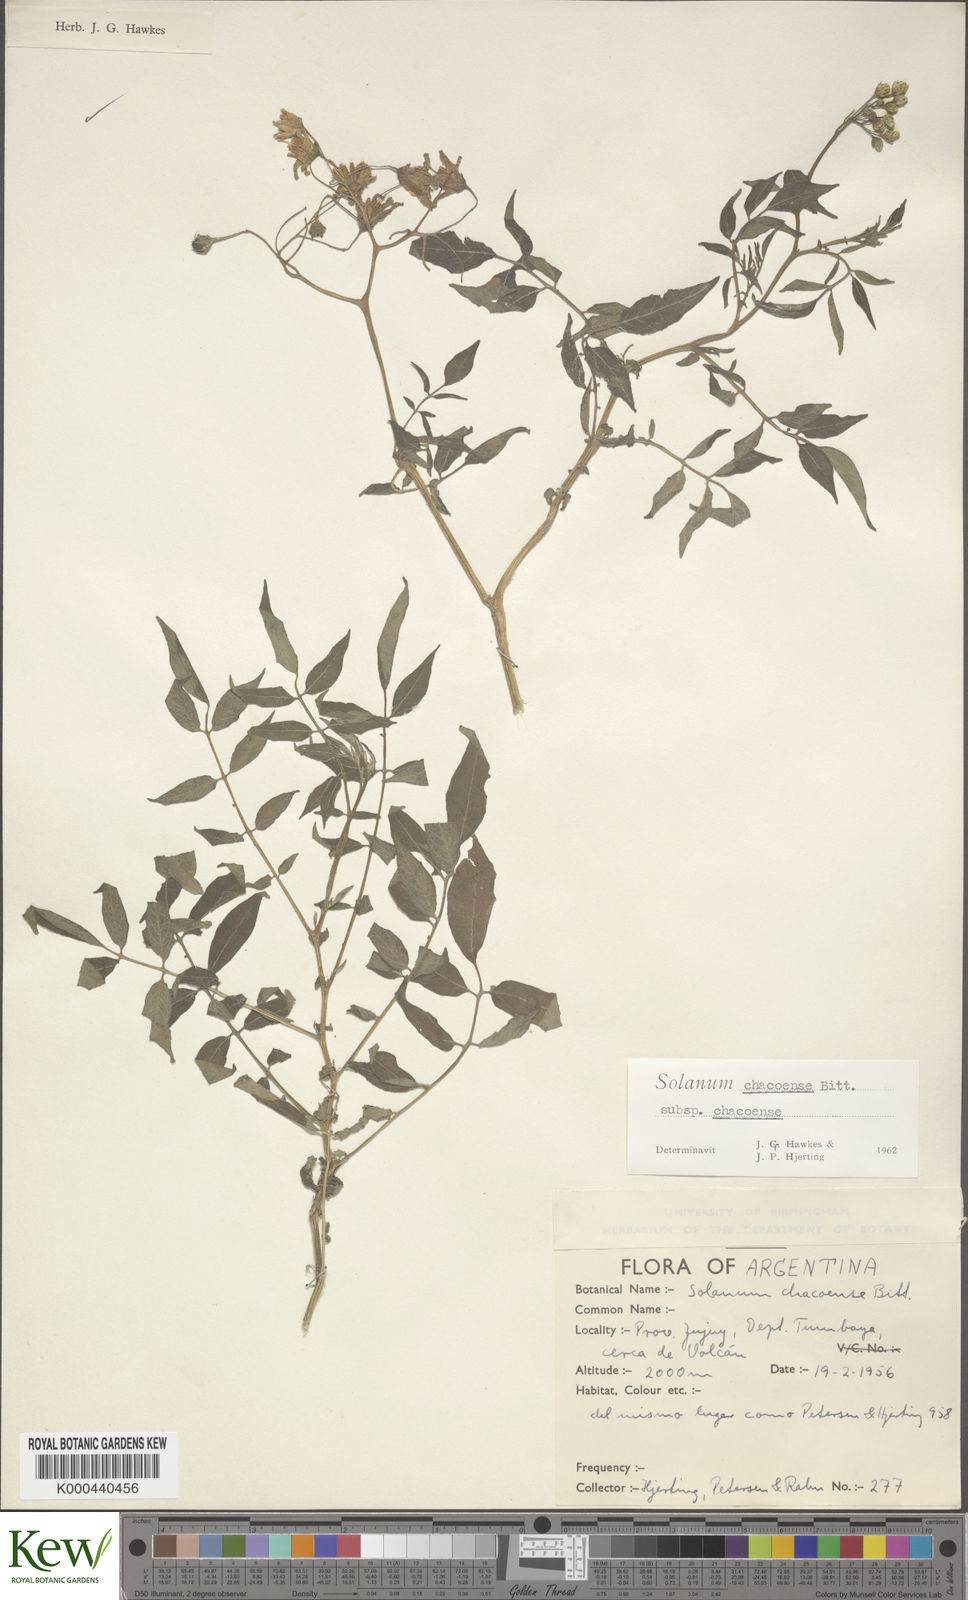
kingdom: Plantae
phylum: Tracheophyta
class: Magnoliopsida
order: Solanales
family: Solanaceae
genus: Solanum
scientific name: Solanum chacoense
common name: Chaco potato
